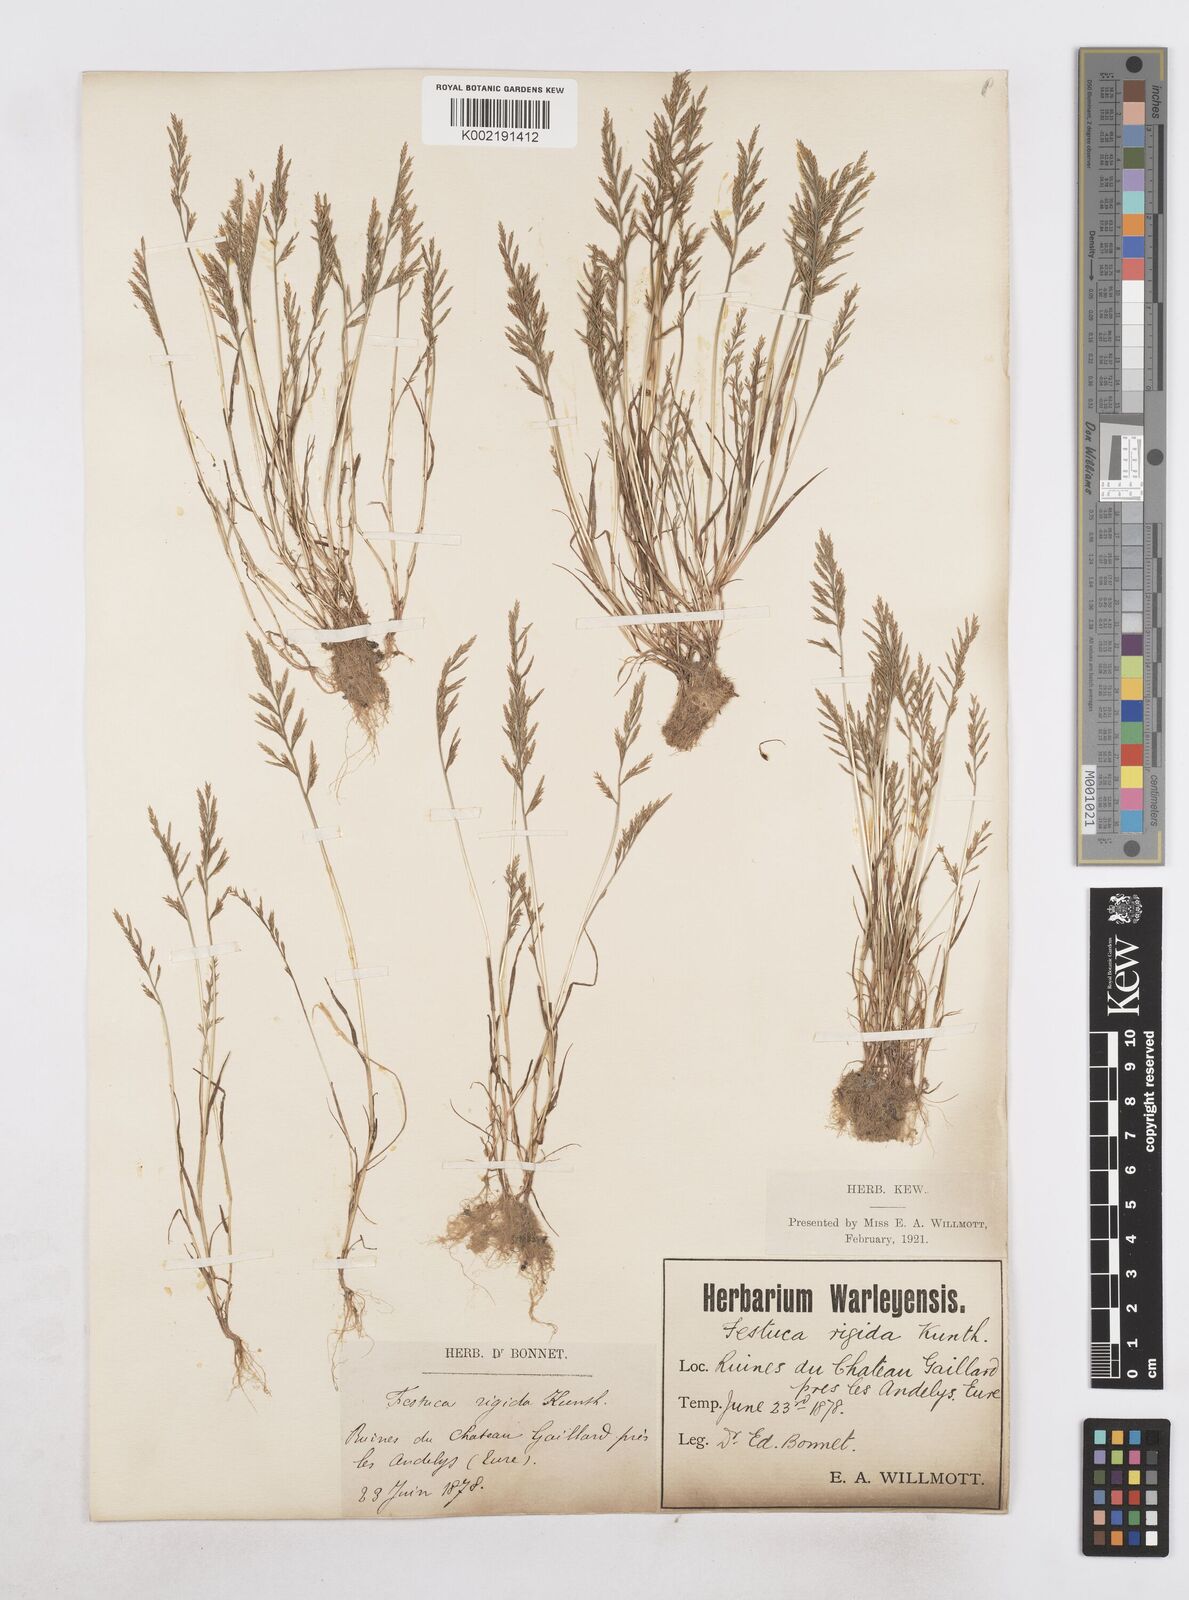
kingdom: Plantae
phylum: Tracheophyta
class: Liliopsida
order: Poales
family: Poaceae
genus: Catapodium
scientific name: Catapodium rigidum
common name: Fern-grass
